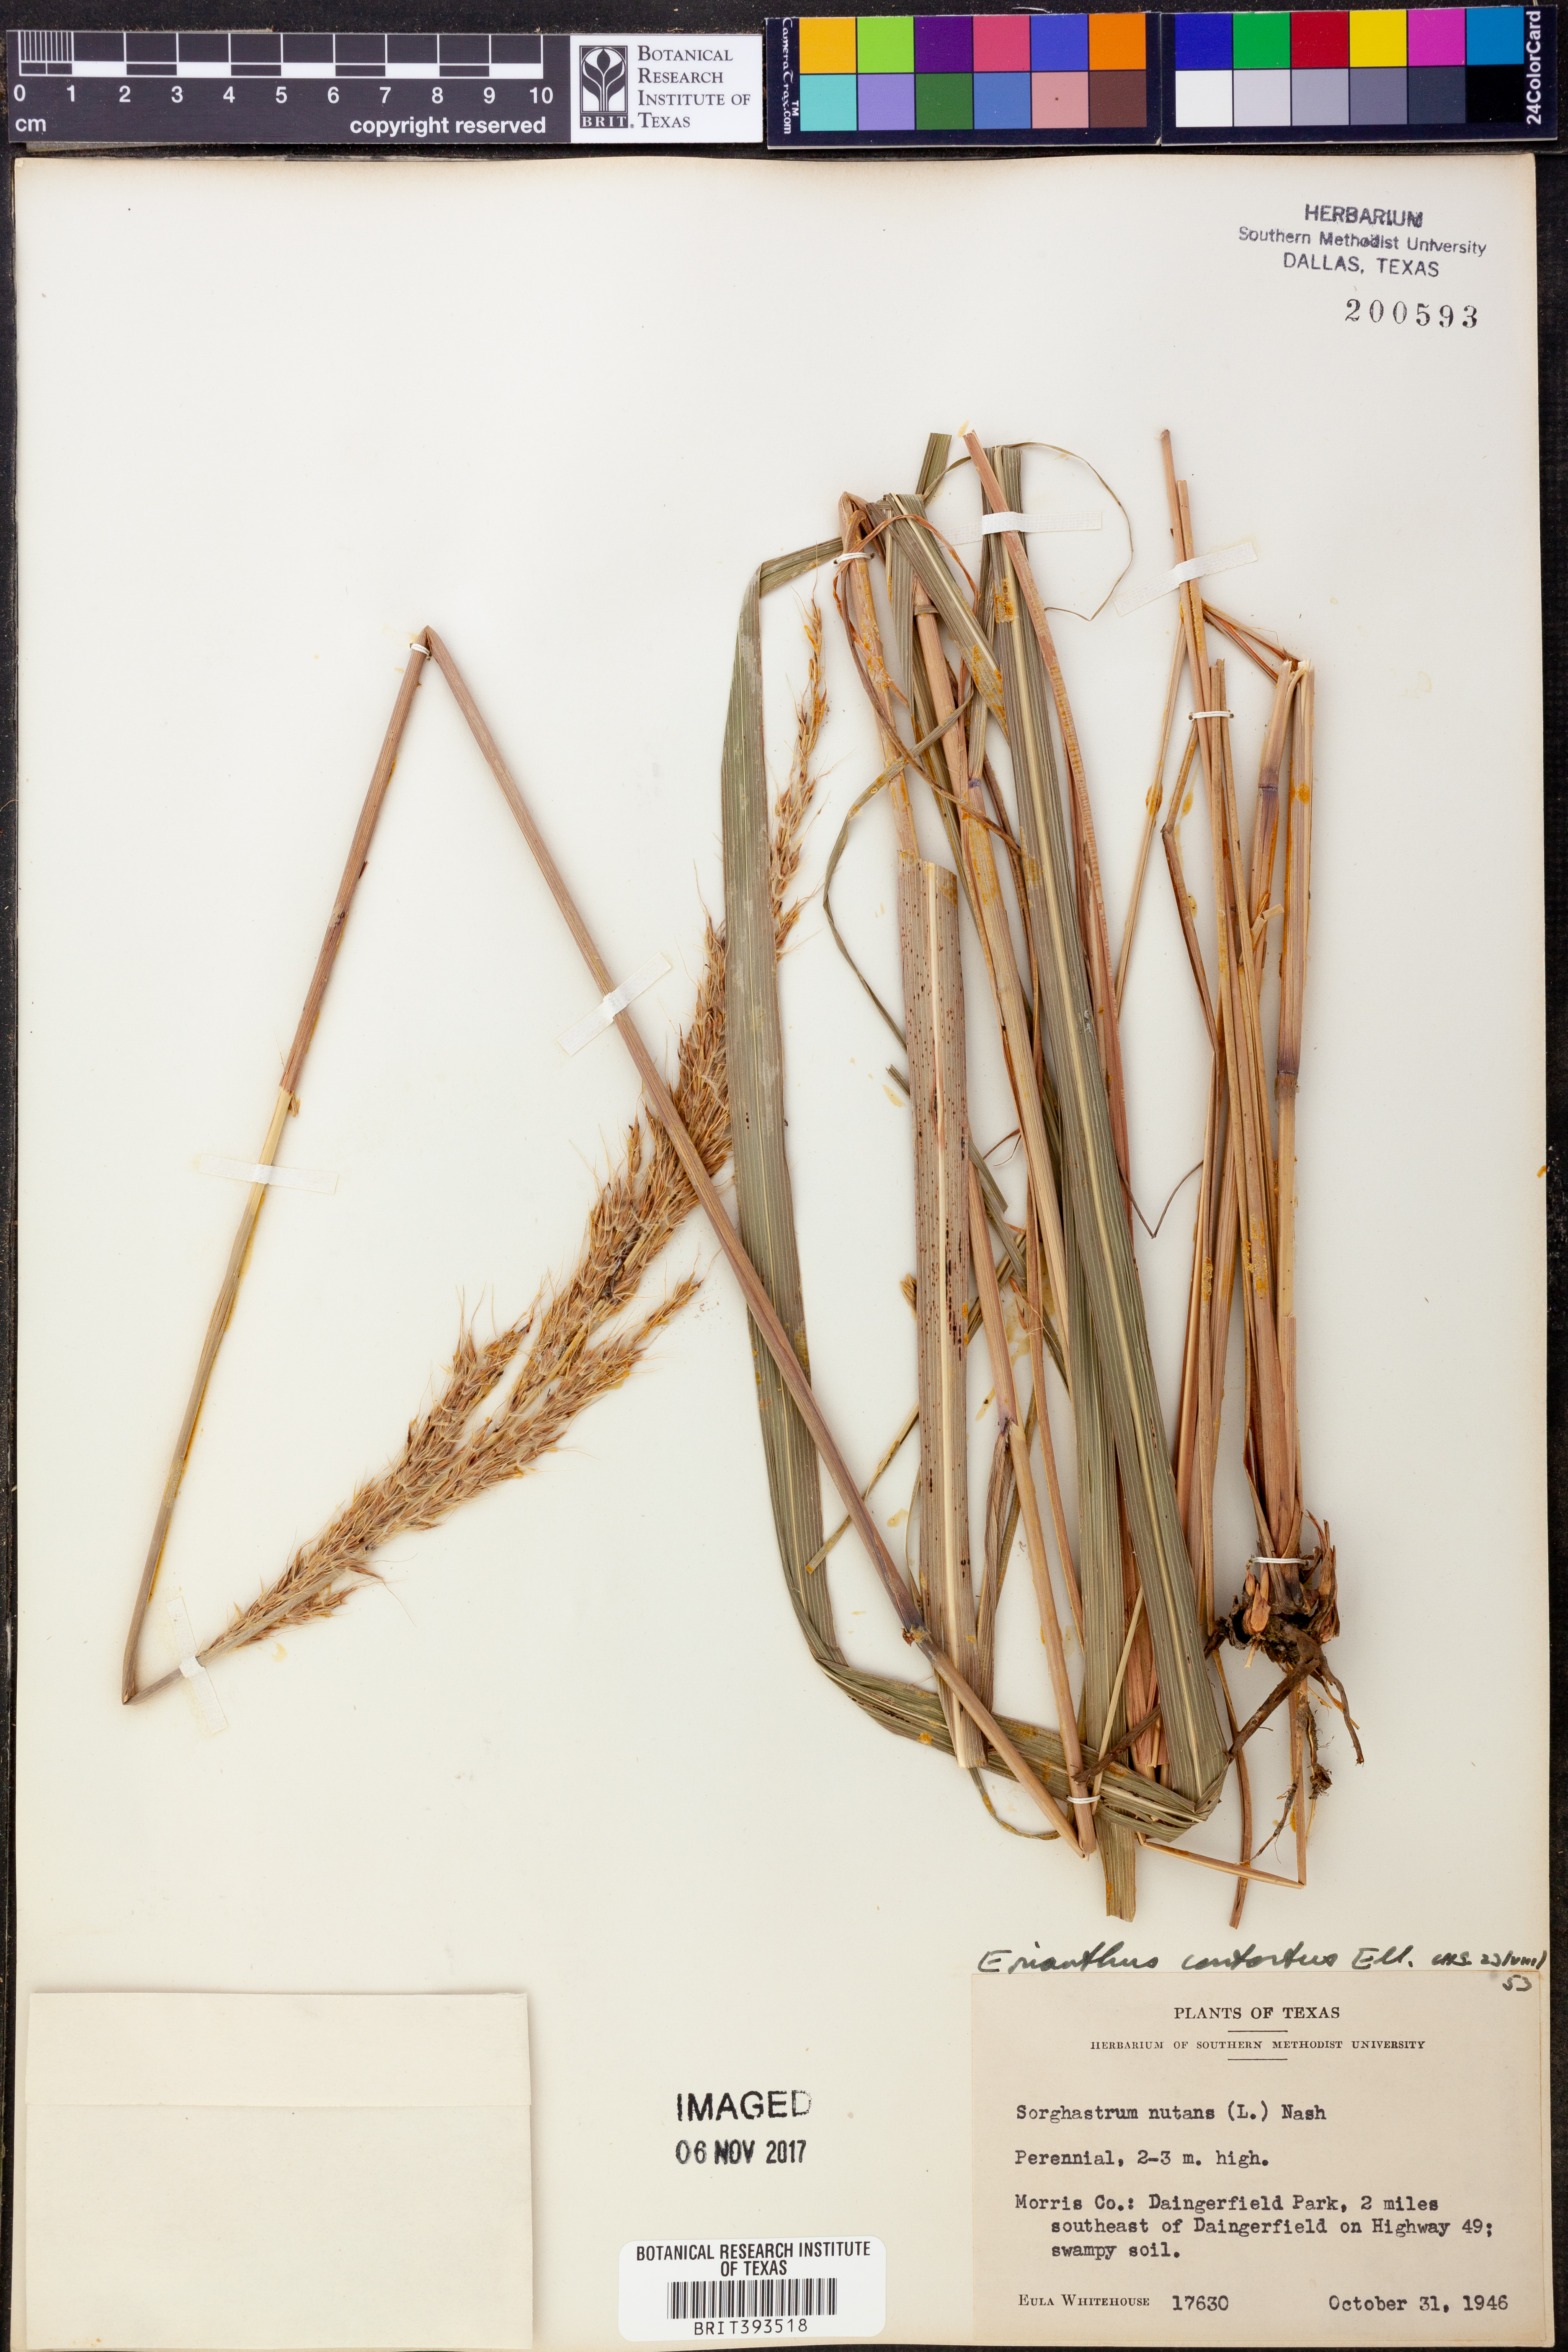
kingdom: Plantae
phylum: Tracheophyta
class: Liliopsida
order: Poales
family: Poaceae
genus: Erianthus
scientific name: Erianthus contortus
